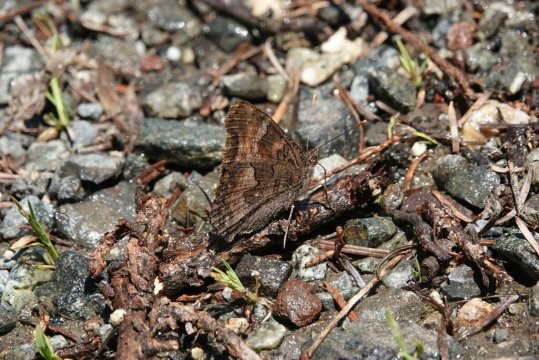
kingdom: Animalia
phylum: Arthropoda
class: Insecta
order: Lepidoptera
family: Nymphalidae
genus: Nymphalis
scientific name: Nymphalis californica
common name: California Tortoiseshell
